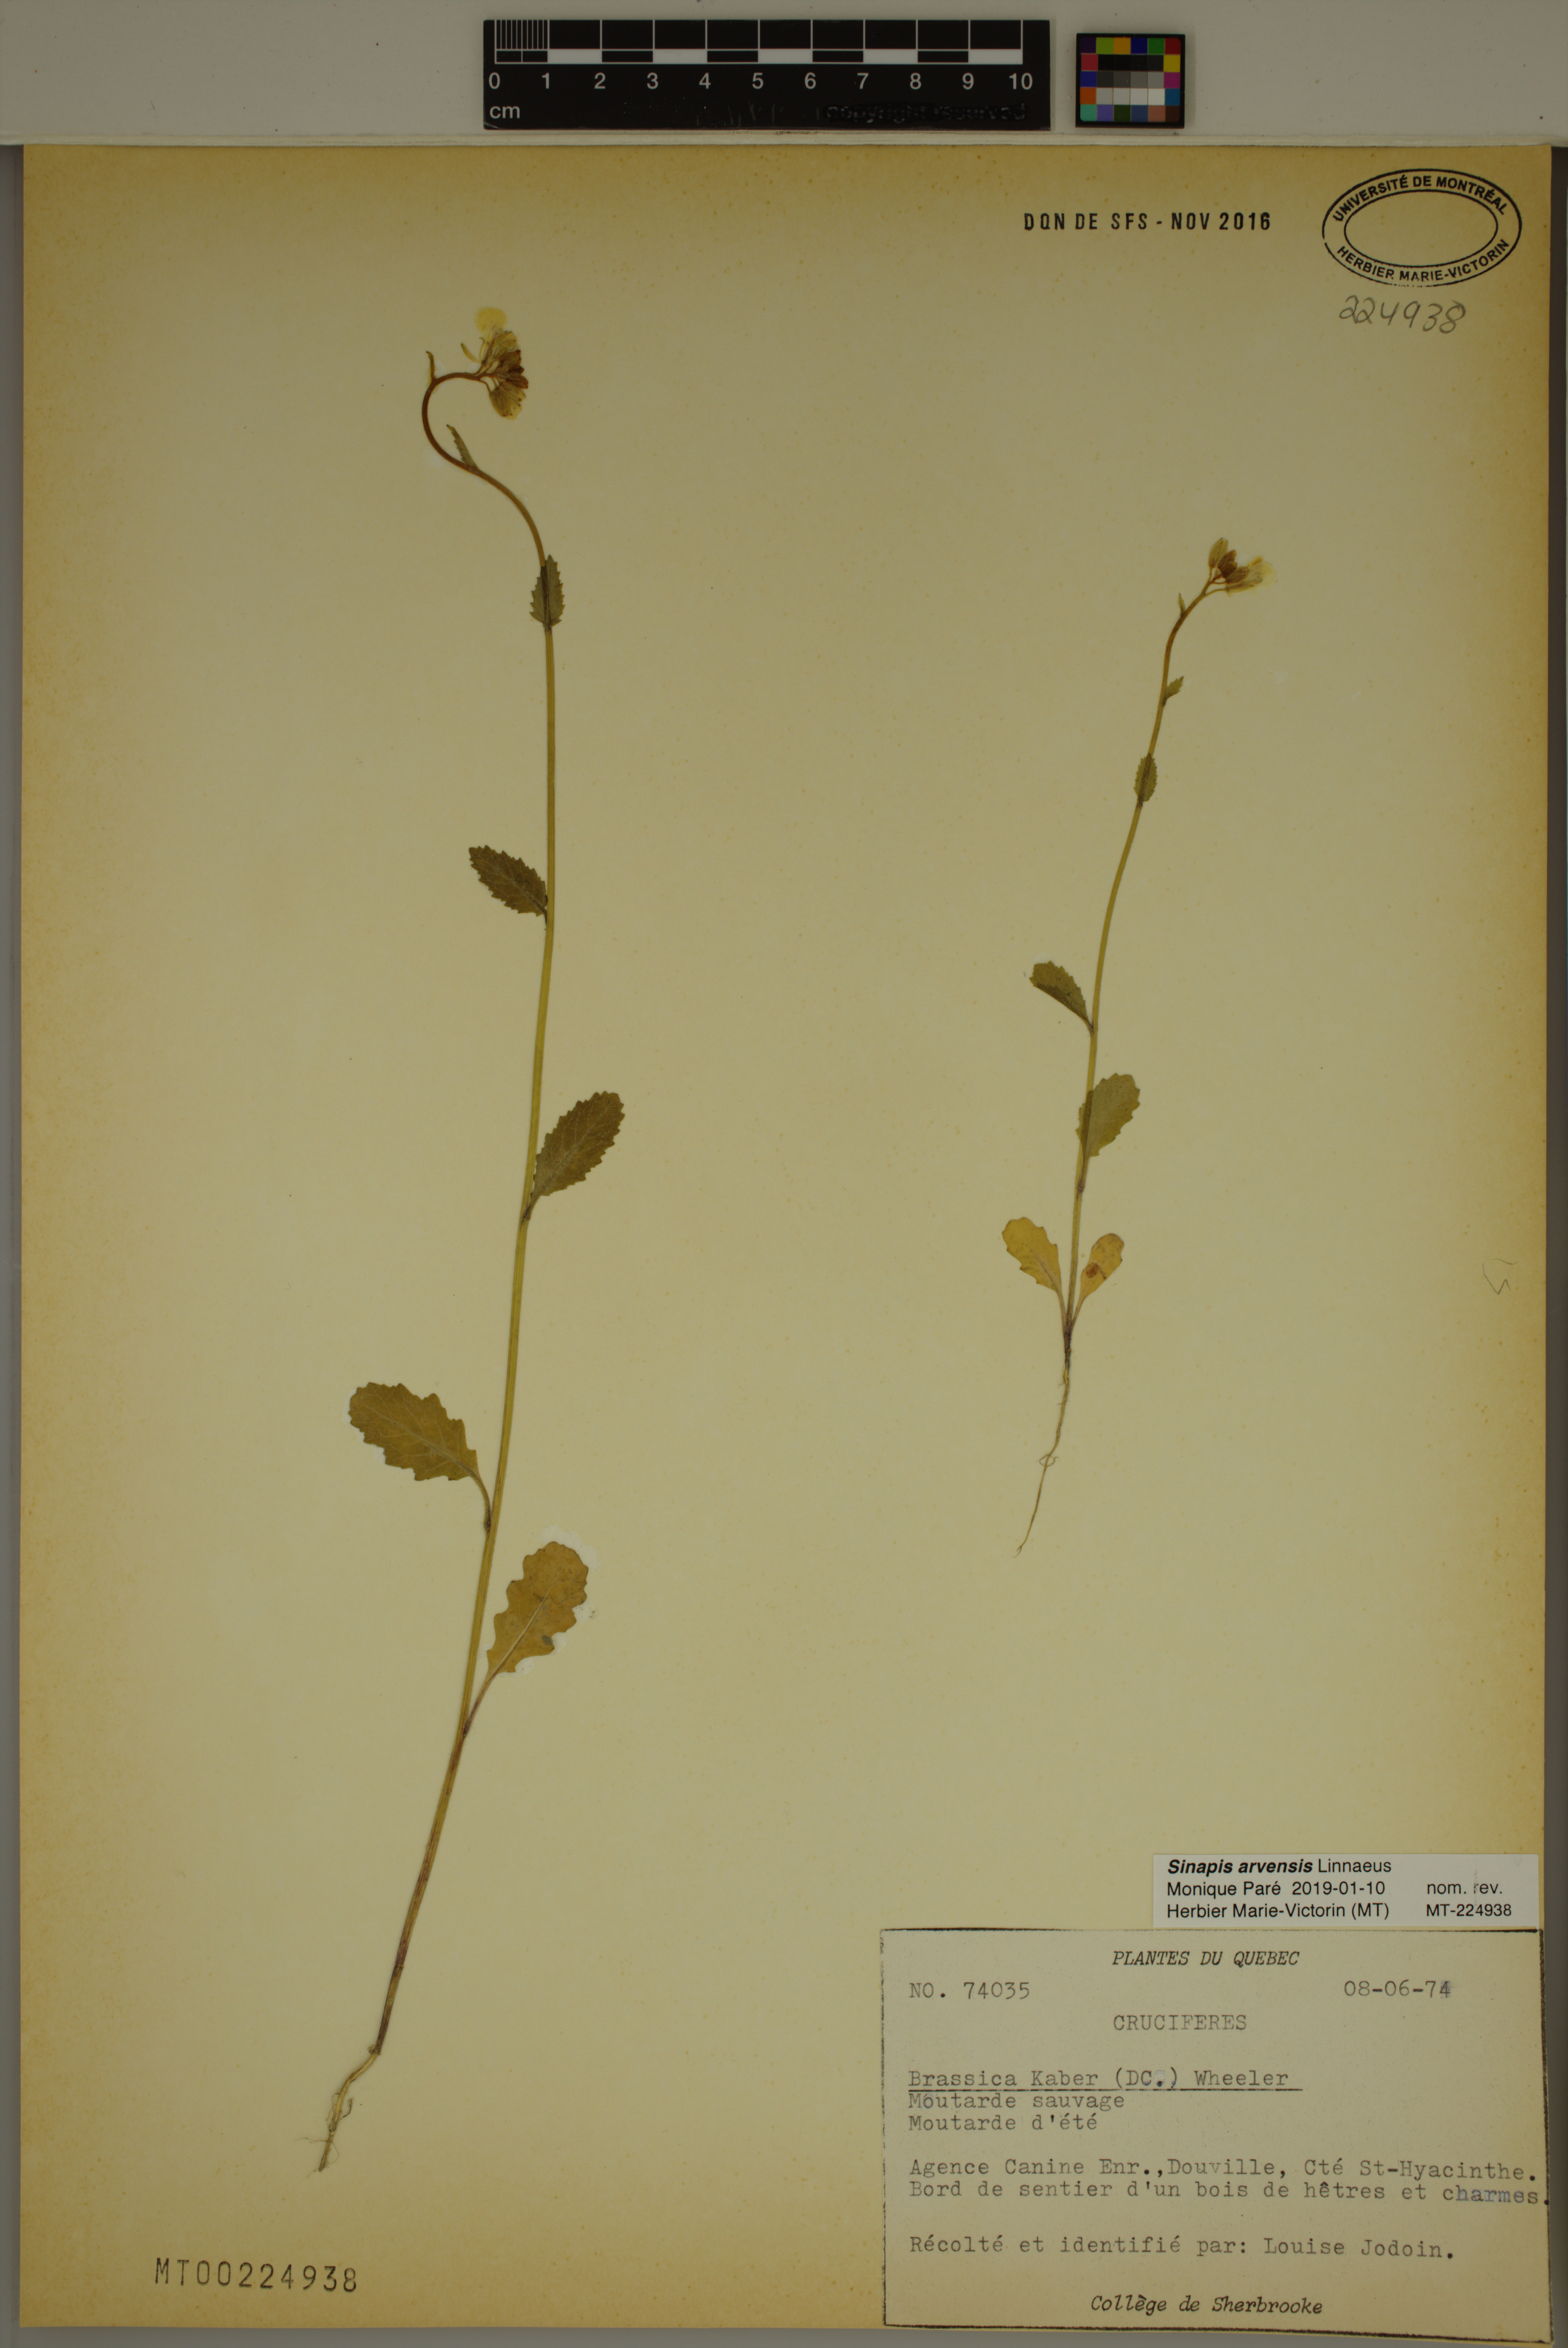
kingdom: Plantae
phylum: Tracheophyta
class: Magnoliopsida
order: Brassicales
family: Brassicaceae
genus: Sinapis
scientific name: Sinapis arvensis
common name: Charlock
